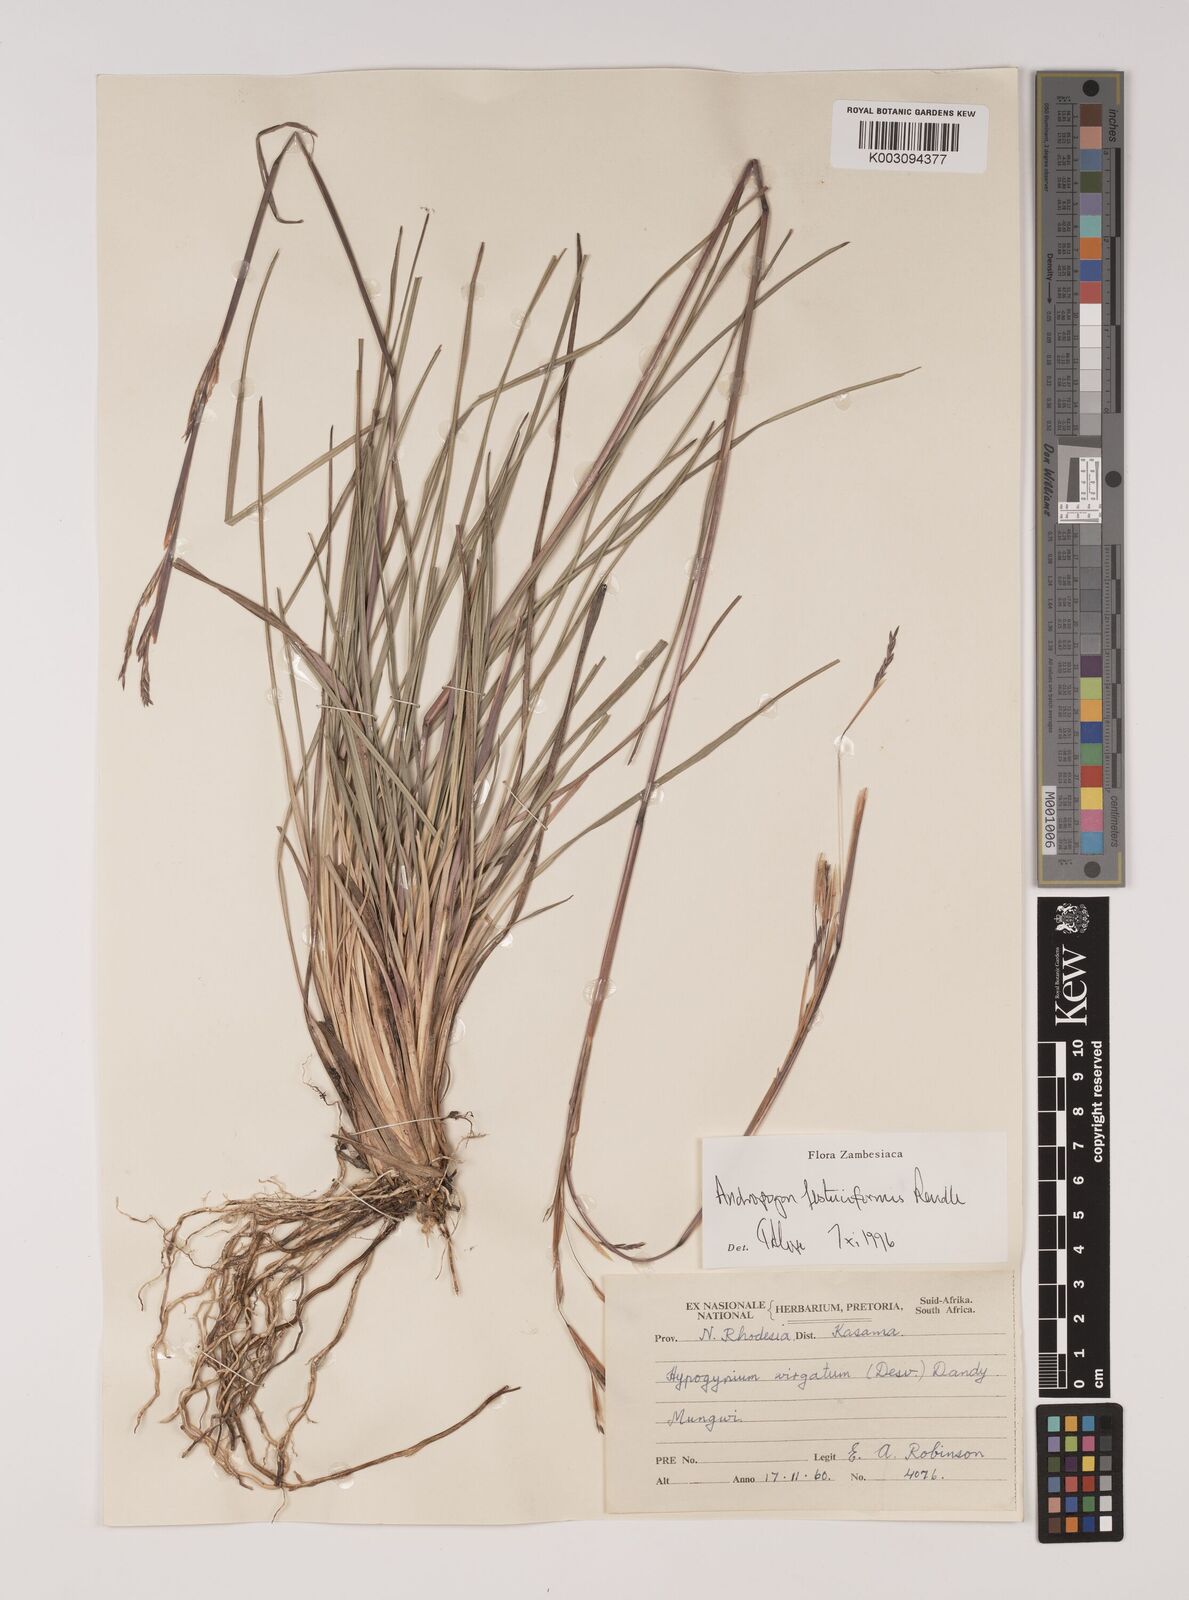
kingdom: Plantae
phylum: Tracheophyta
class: Liliopsida
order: Poales
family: Poaceae
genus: Andropogon
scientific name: Andropogon festuciformis
